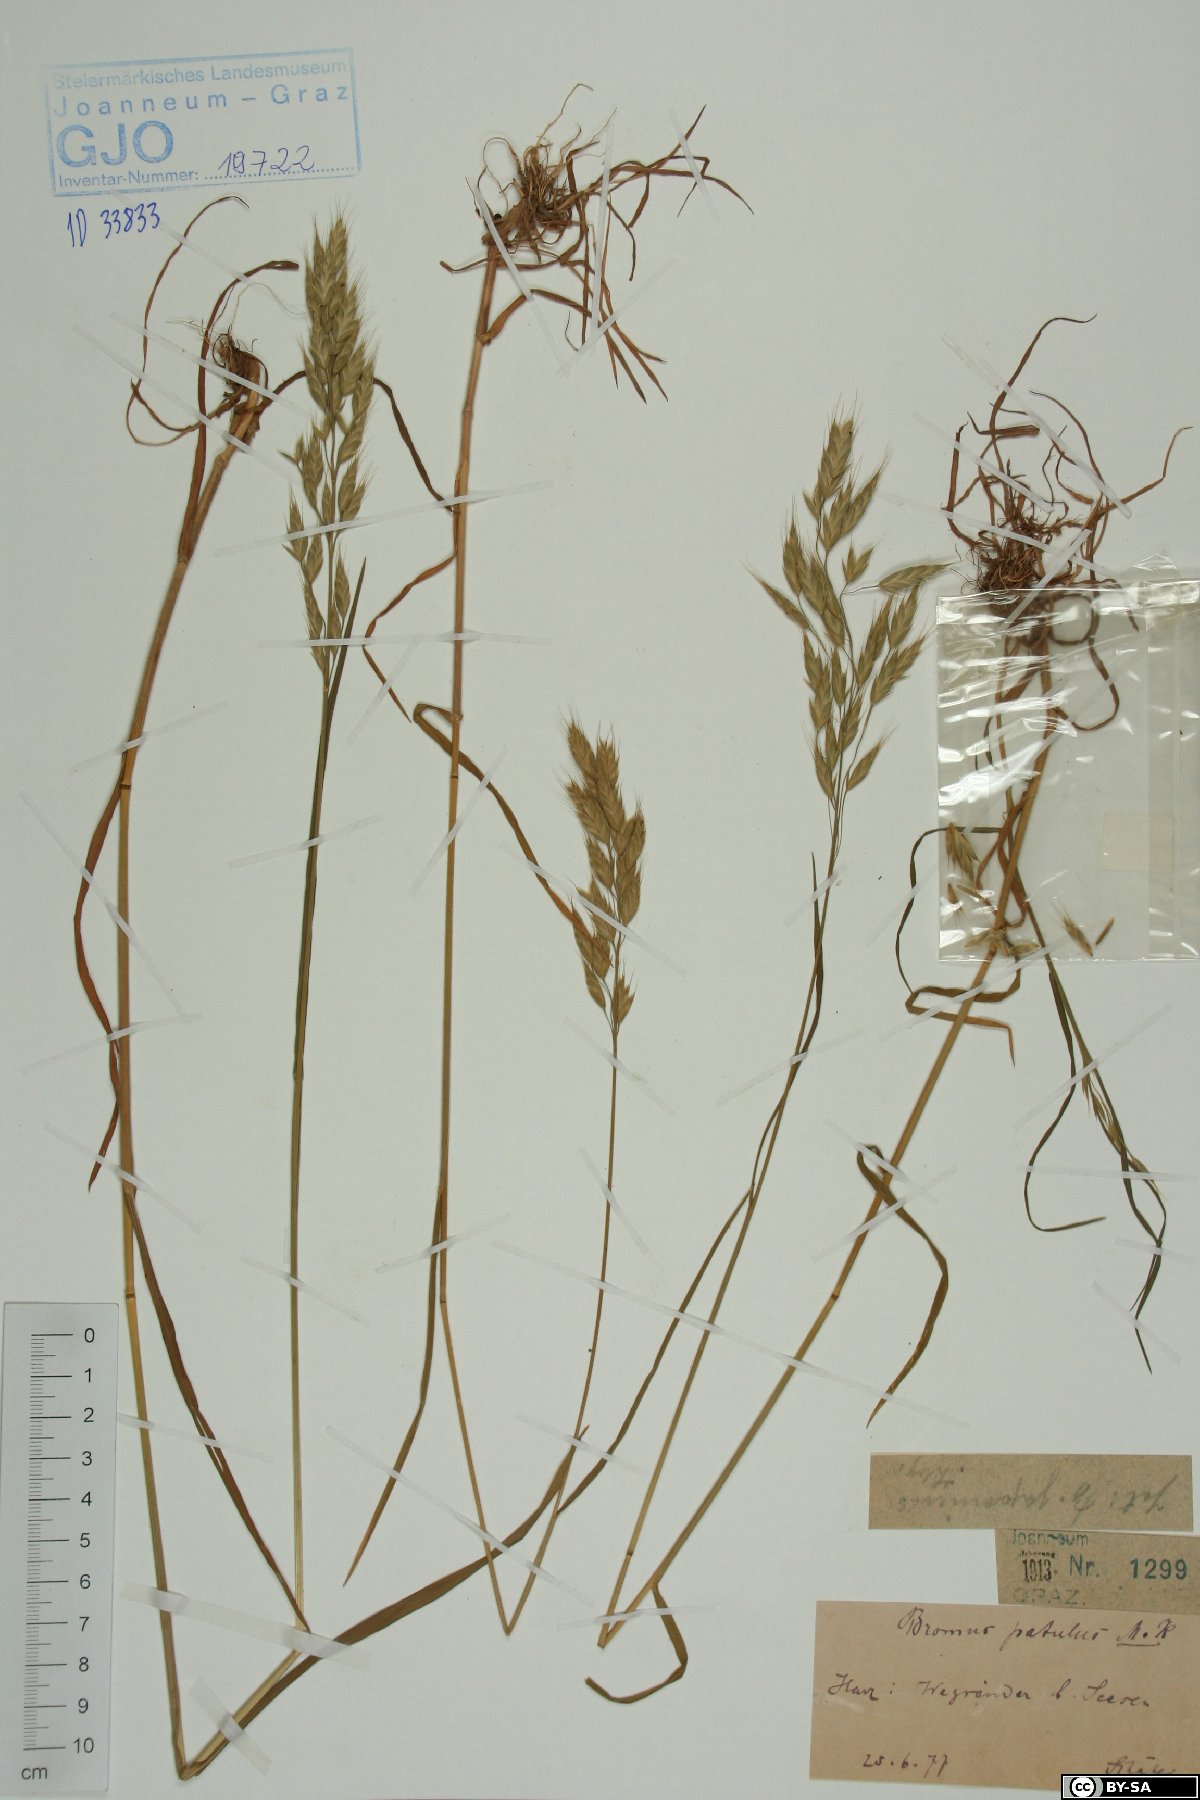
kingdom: Plantae
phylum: Tracheophyta
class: Liliopsida
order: Poales
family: Poaceae
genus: Bromus
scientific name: Bromus japonicus
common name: Japanese brome
